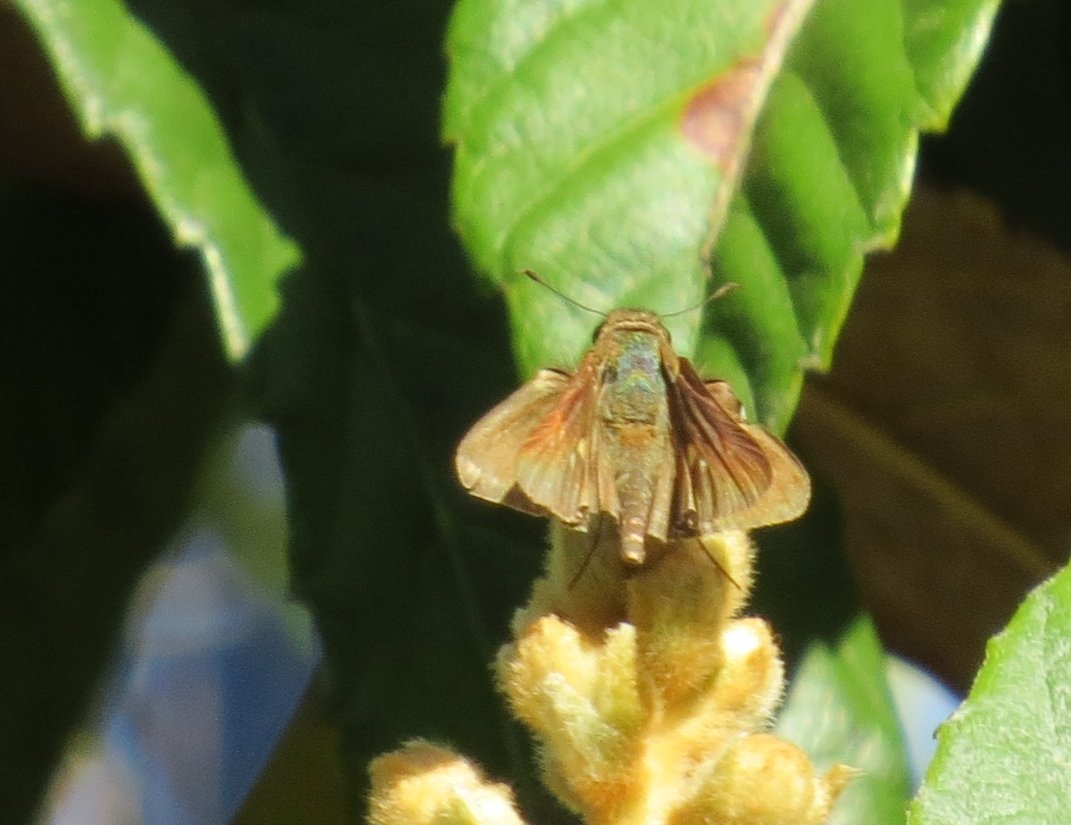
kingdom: Animalia
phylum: Arthropoda
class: Insecta
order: Lepidoptera
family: Hesperiidae
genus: Panoquina
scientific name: Panoquina ocola
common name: Ocola Skipper
